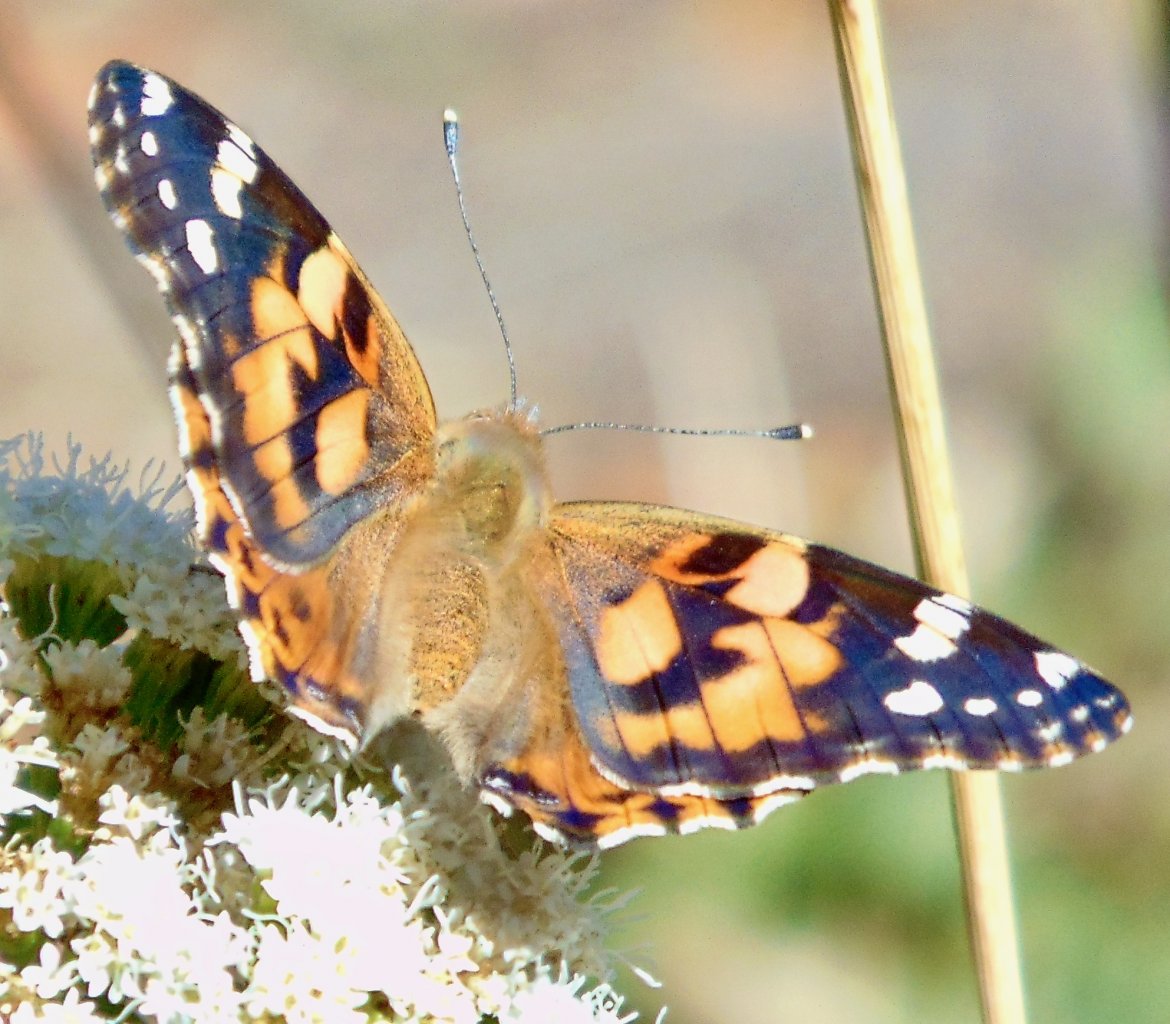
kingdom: Animalia
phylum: Arthropoda
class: Insecta
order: Lepidoptera
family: Nymphalidae
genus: Vanessa
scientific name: Vanessa cardui
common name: Painted Lady
